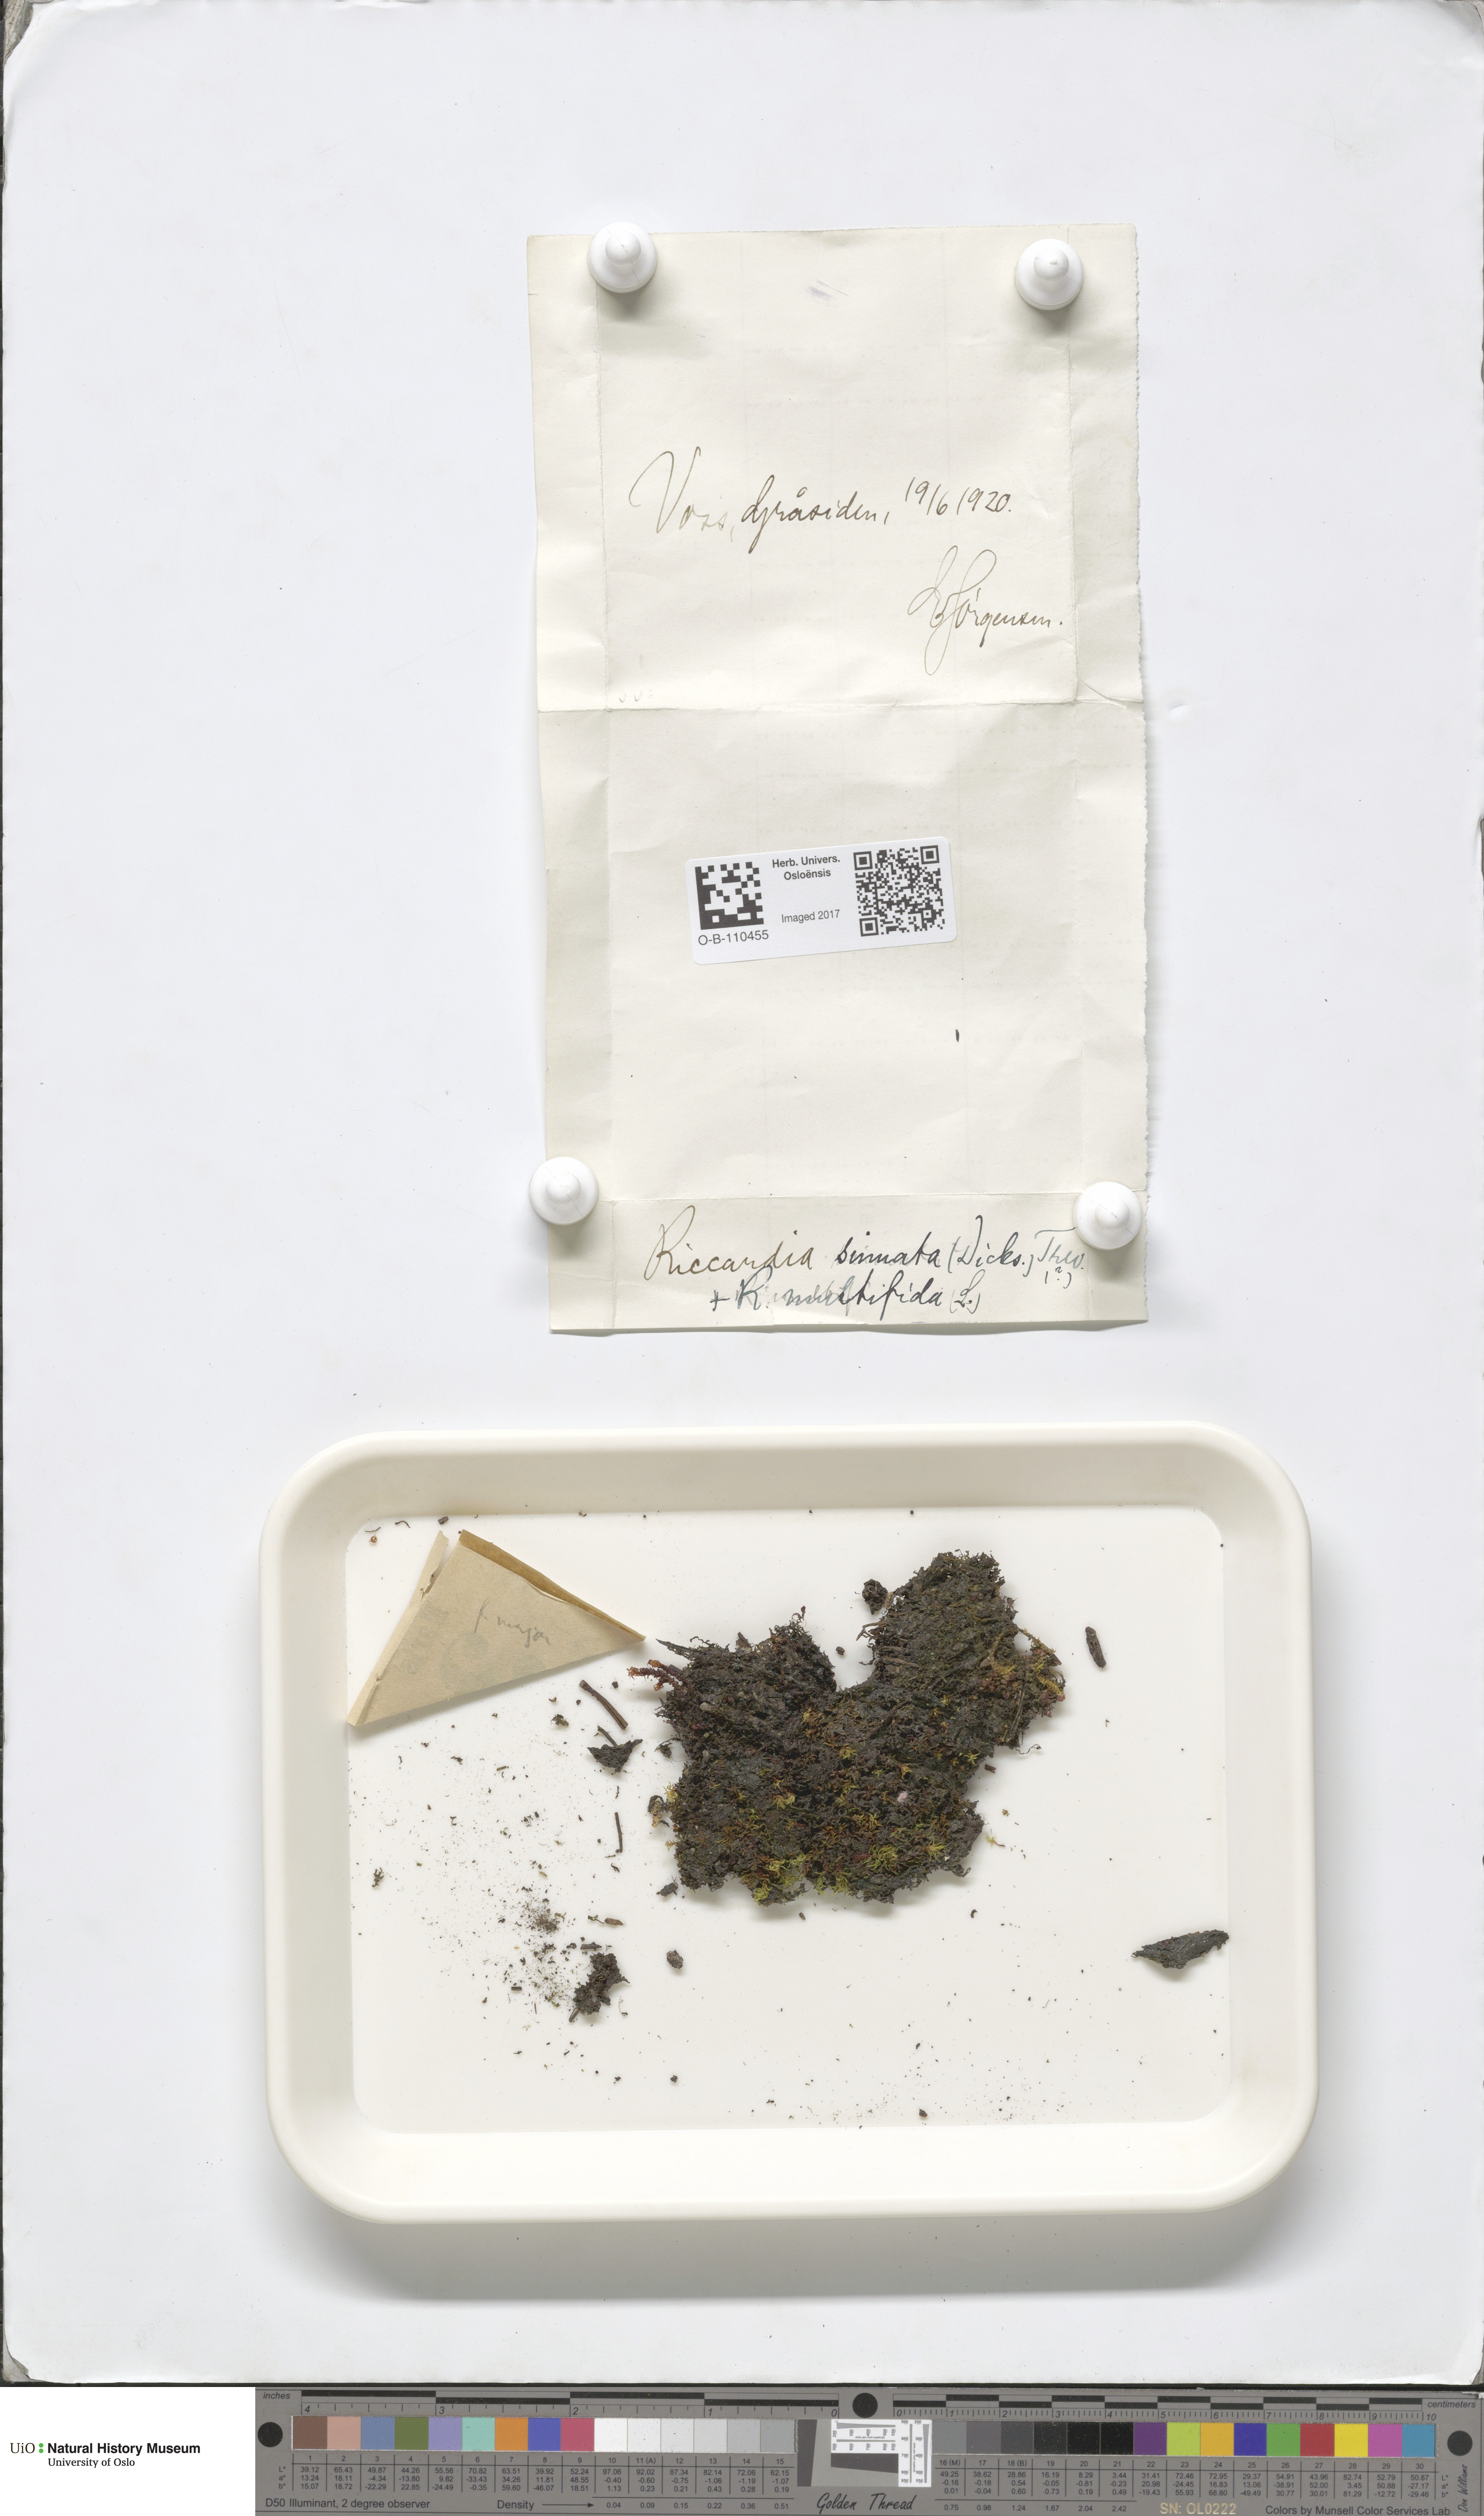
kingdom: Plantae
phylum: Marchantiophyta
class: Jungermanniopsida
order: Metzgeriales
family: Aneuraceae
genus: Riccardia
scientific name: Riccardia chamaedryfolia
